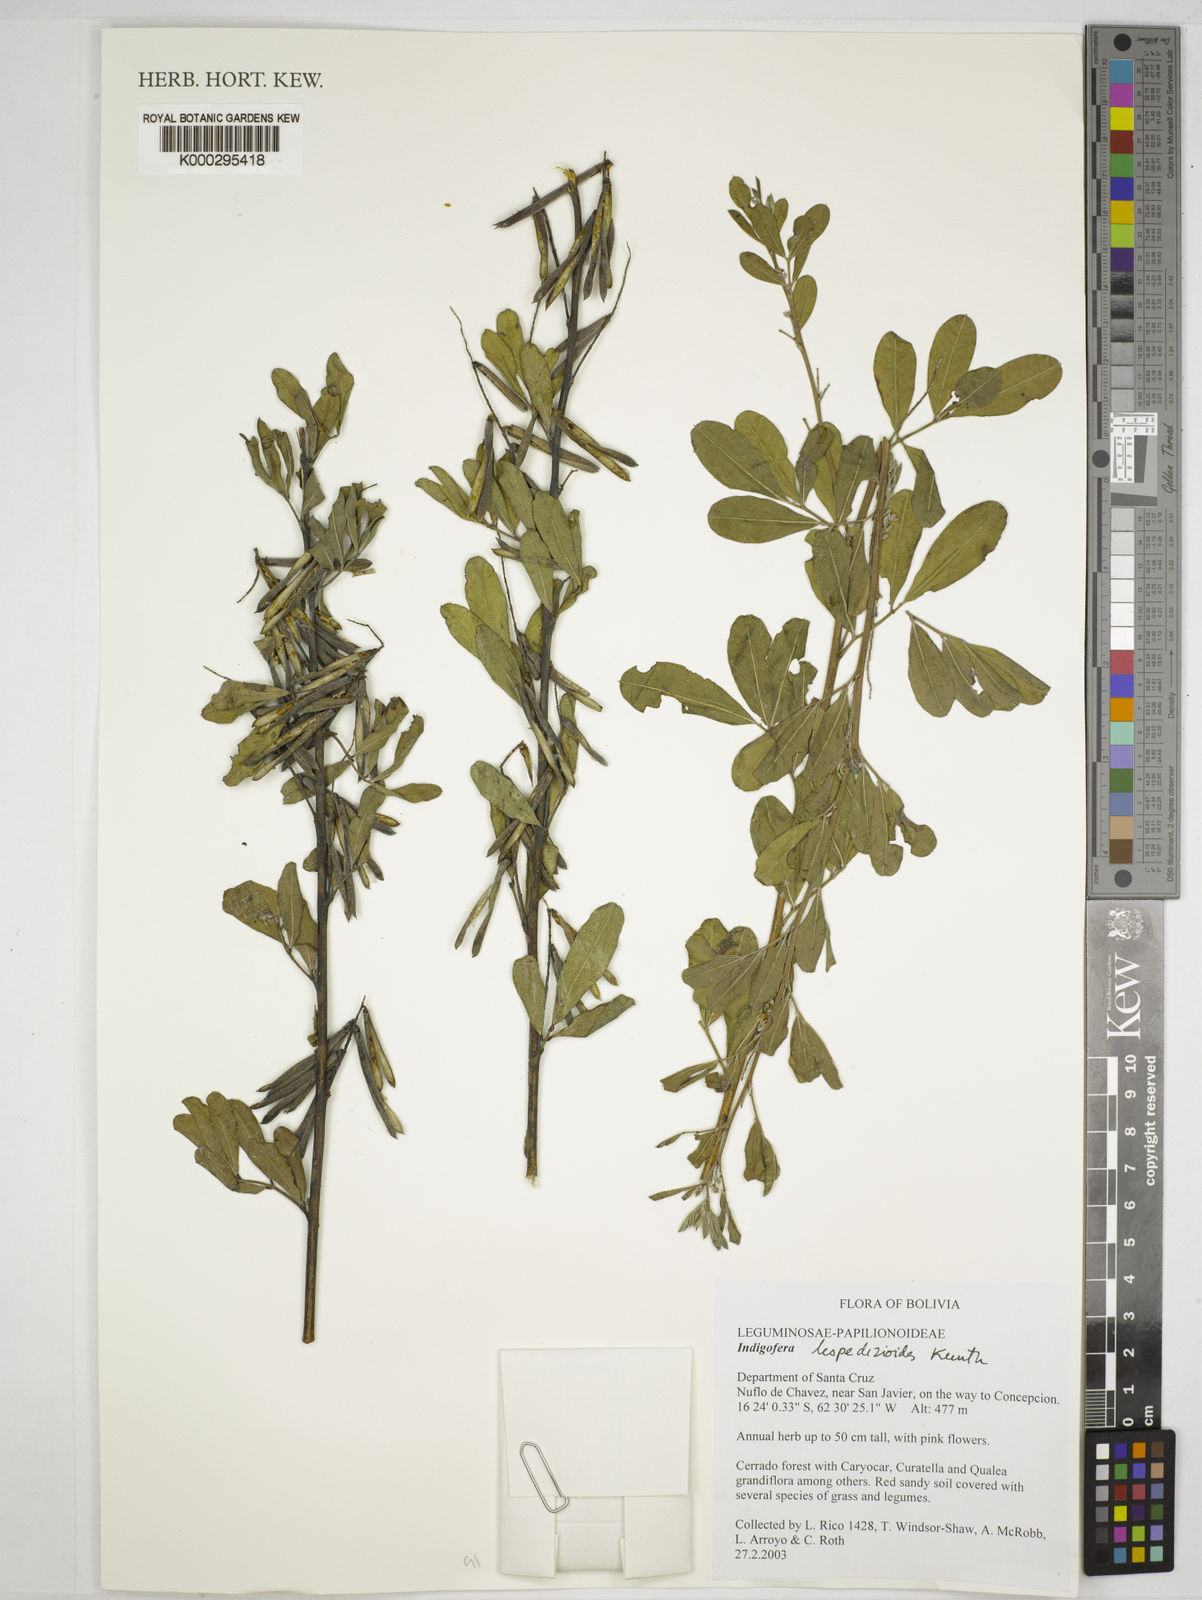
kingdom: Plantae
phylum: Tracheophyta
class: Magnoliopsida
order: Fabales
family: Fabaceae
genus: Indigofera
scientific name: Indigofera lespedezioides
